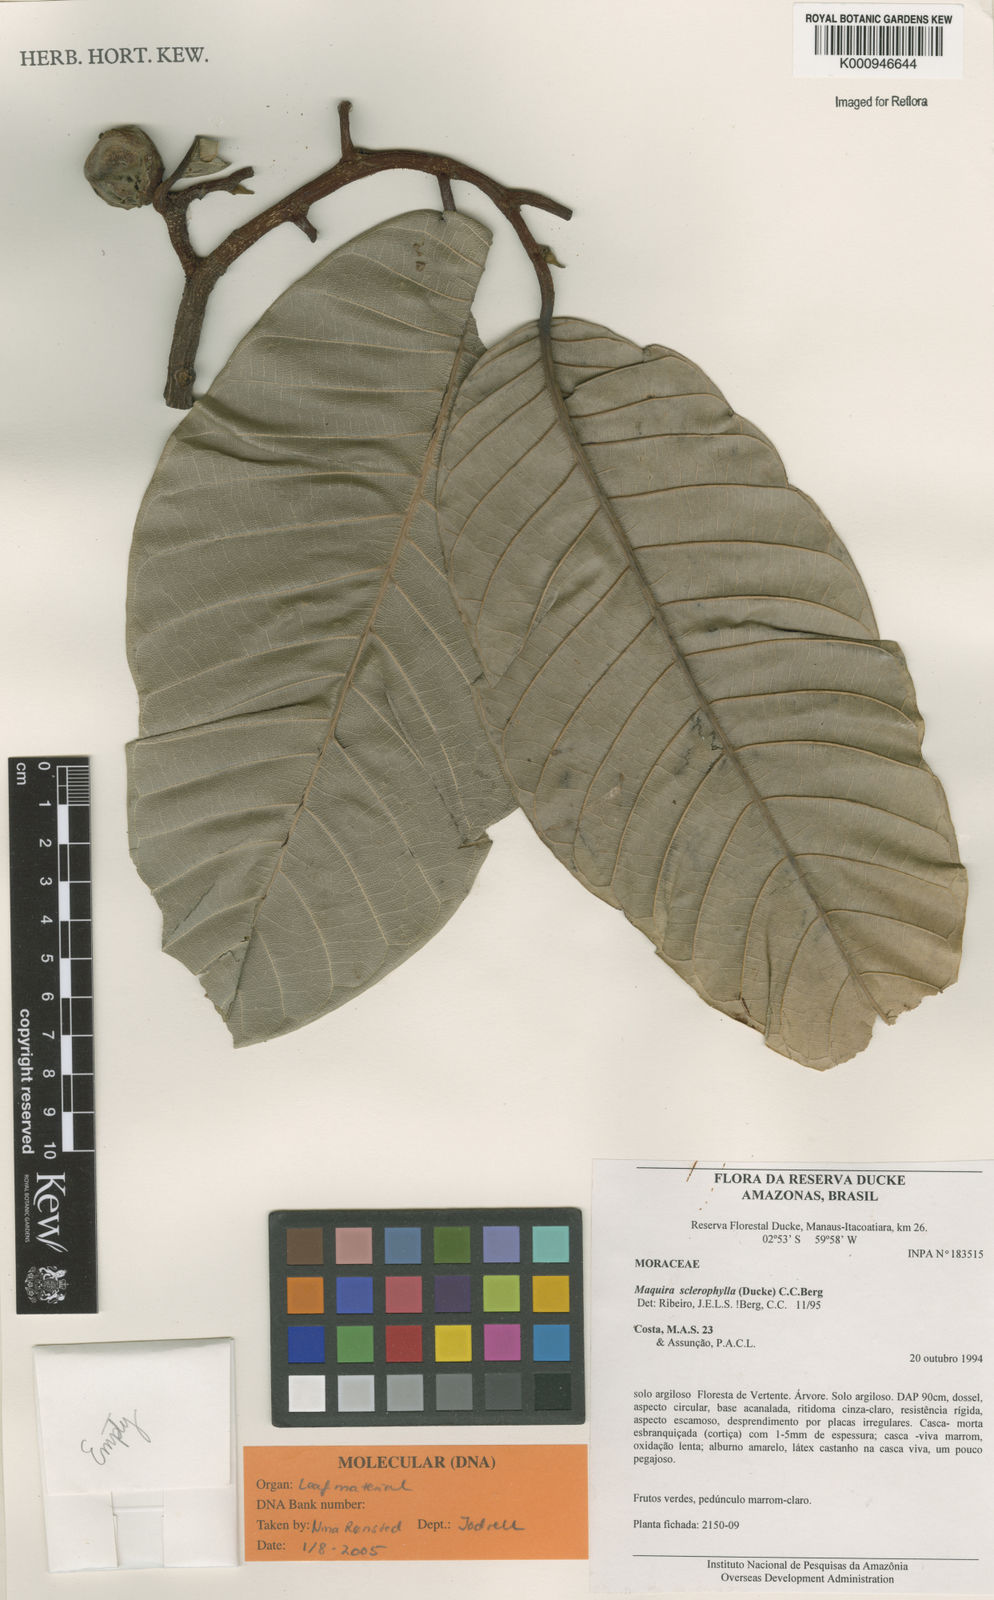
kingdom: Plantae
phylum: Tracheophyta
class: Magnoliopsida
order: Rosales
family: Moraceae
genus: Maquira
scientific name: Maquira sclerophylla
